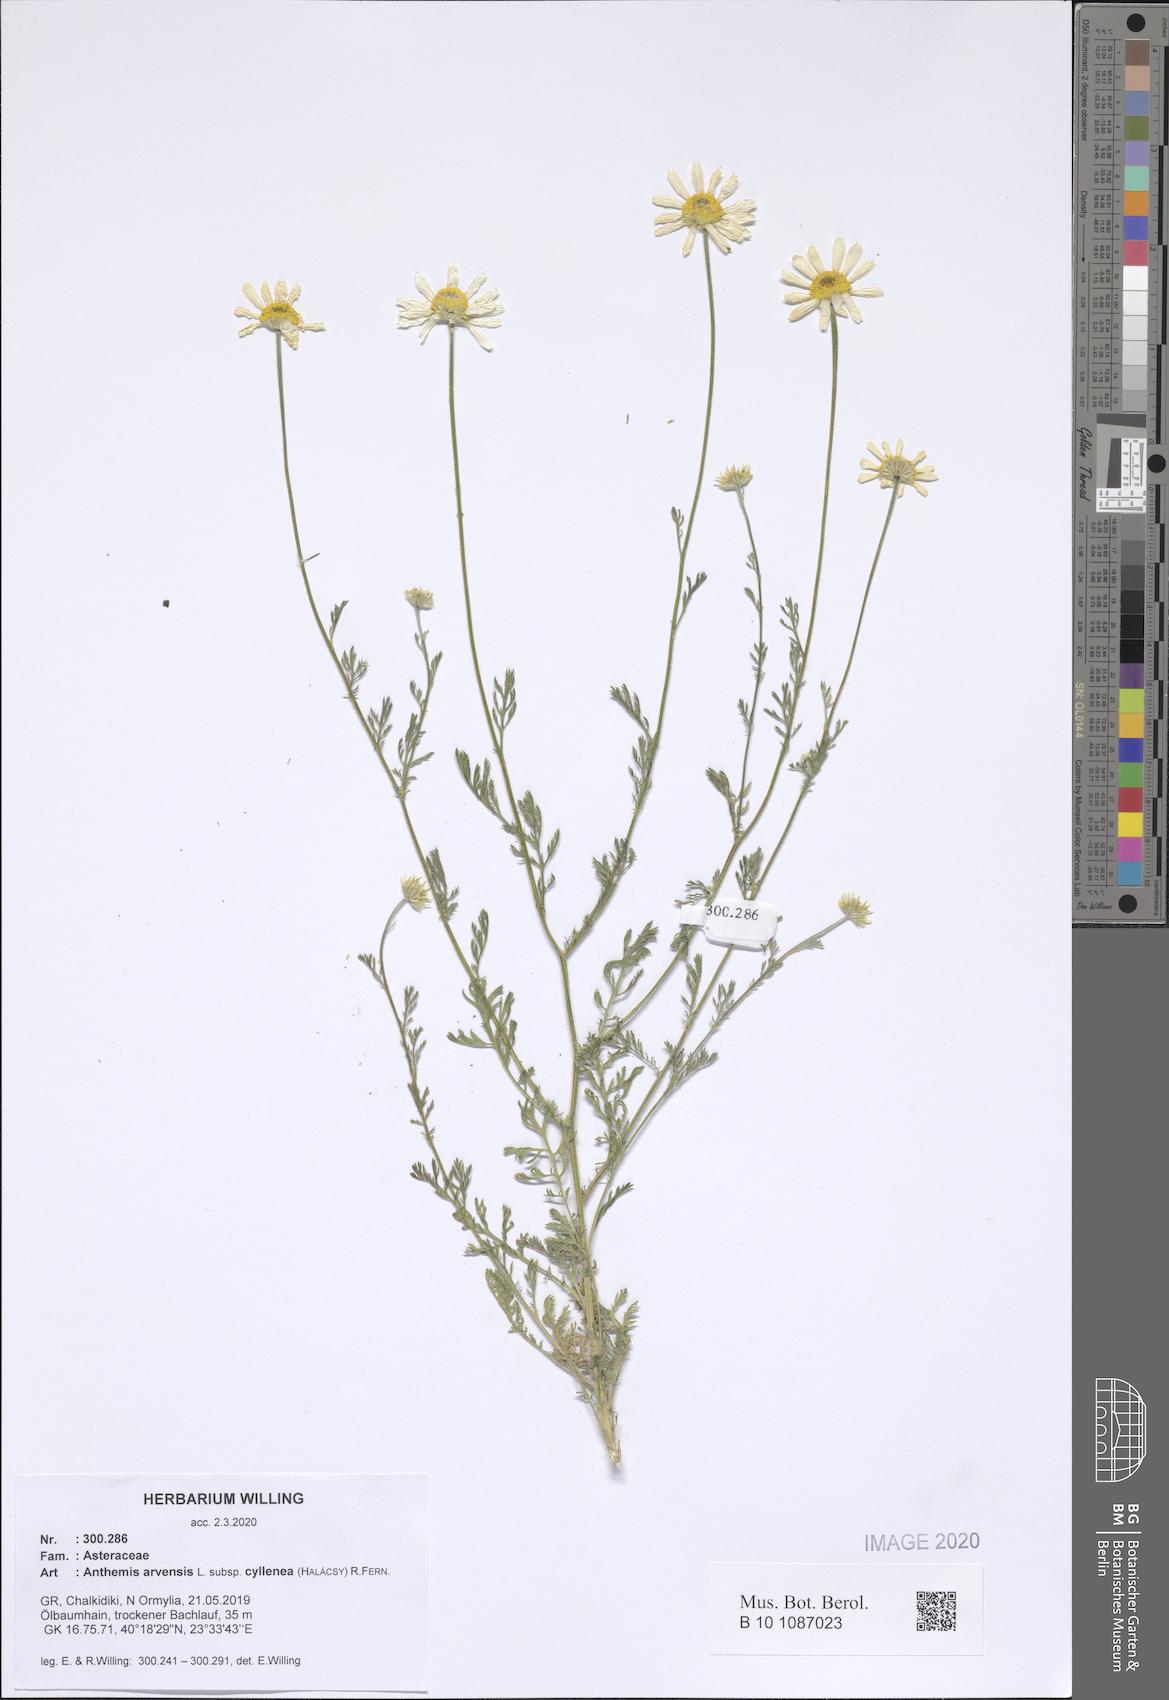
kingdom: Plantae
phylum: Tracheophyta
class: Magnoliopsida
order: Asterales
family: Asteraceae
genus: Anthemis
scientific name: Anthemis arvensis
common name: Corn chamomile
